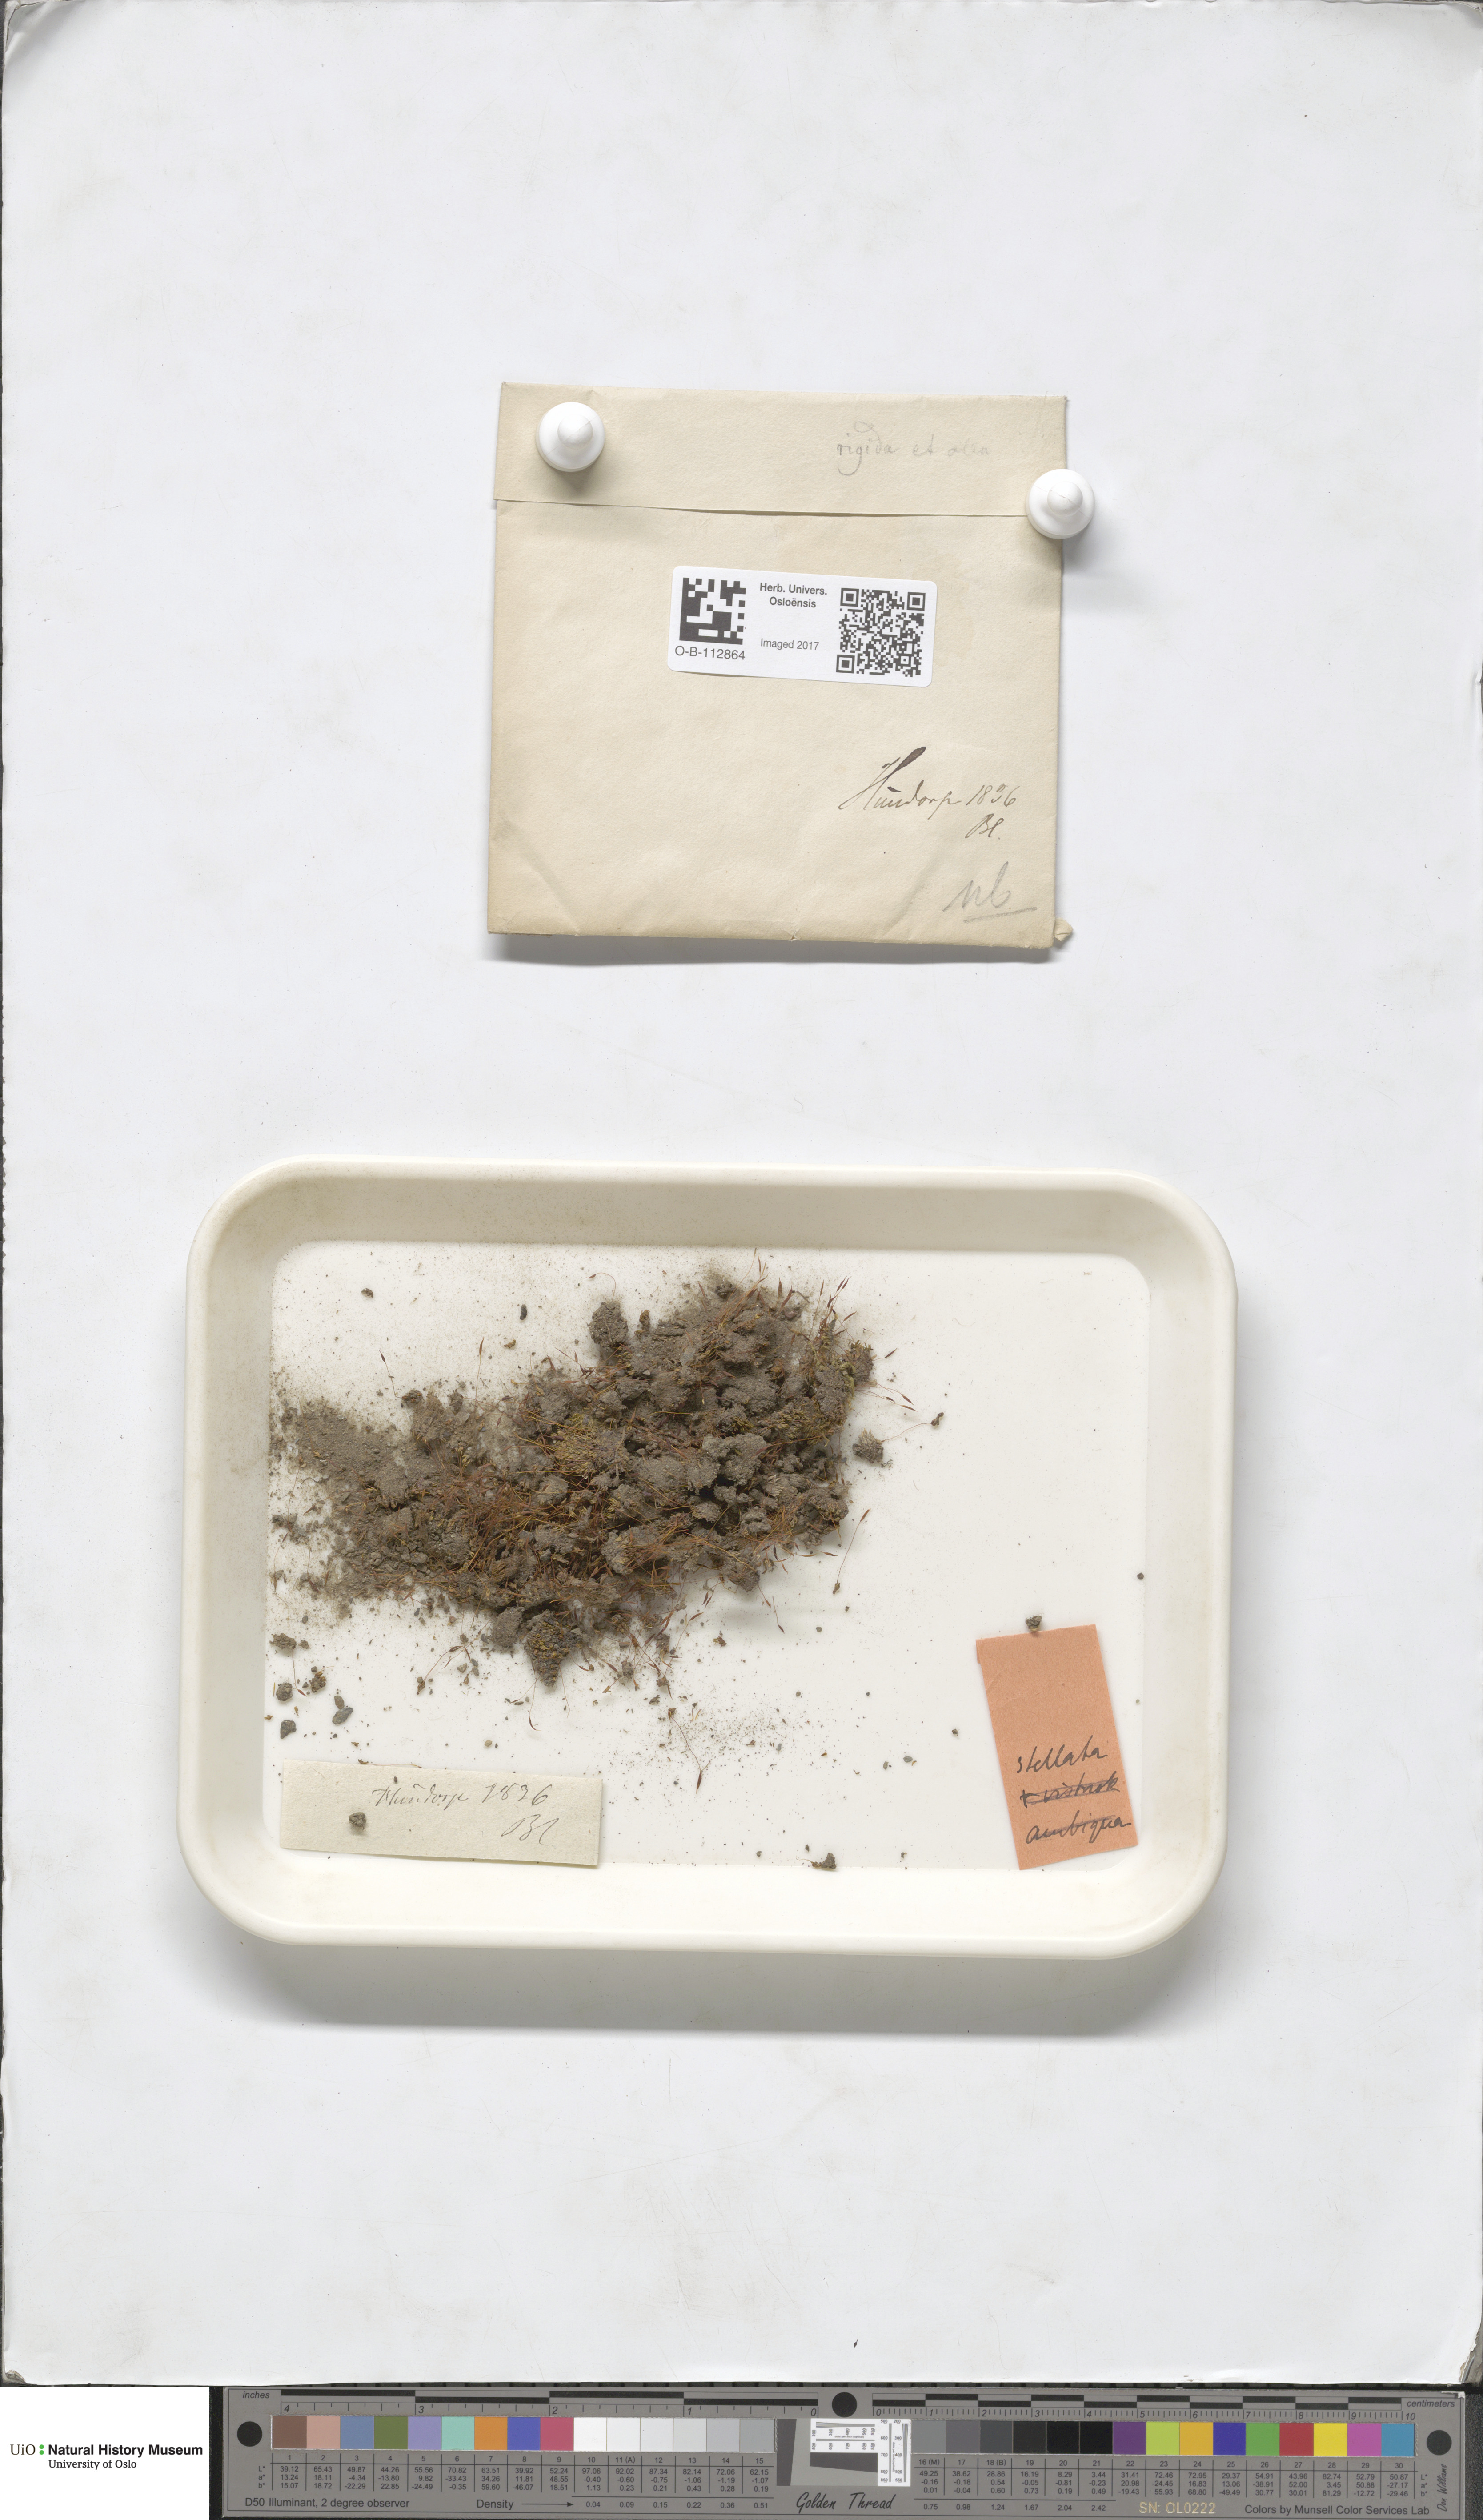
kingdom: Plantae
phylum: Bryophyta
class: Bryopsida
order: Pottiales
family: Pottiaceae
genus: Aloina
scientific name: Aloina rigida
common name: Rigid screw moss
